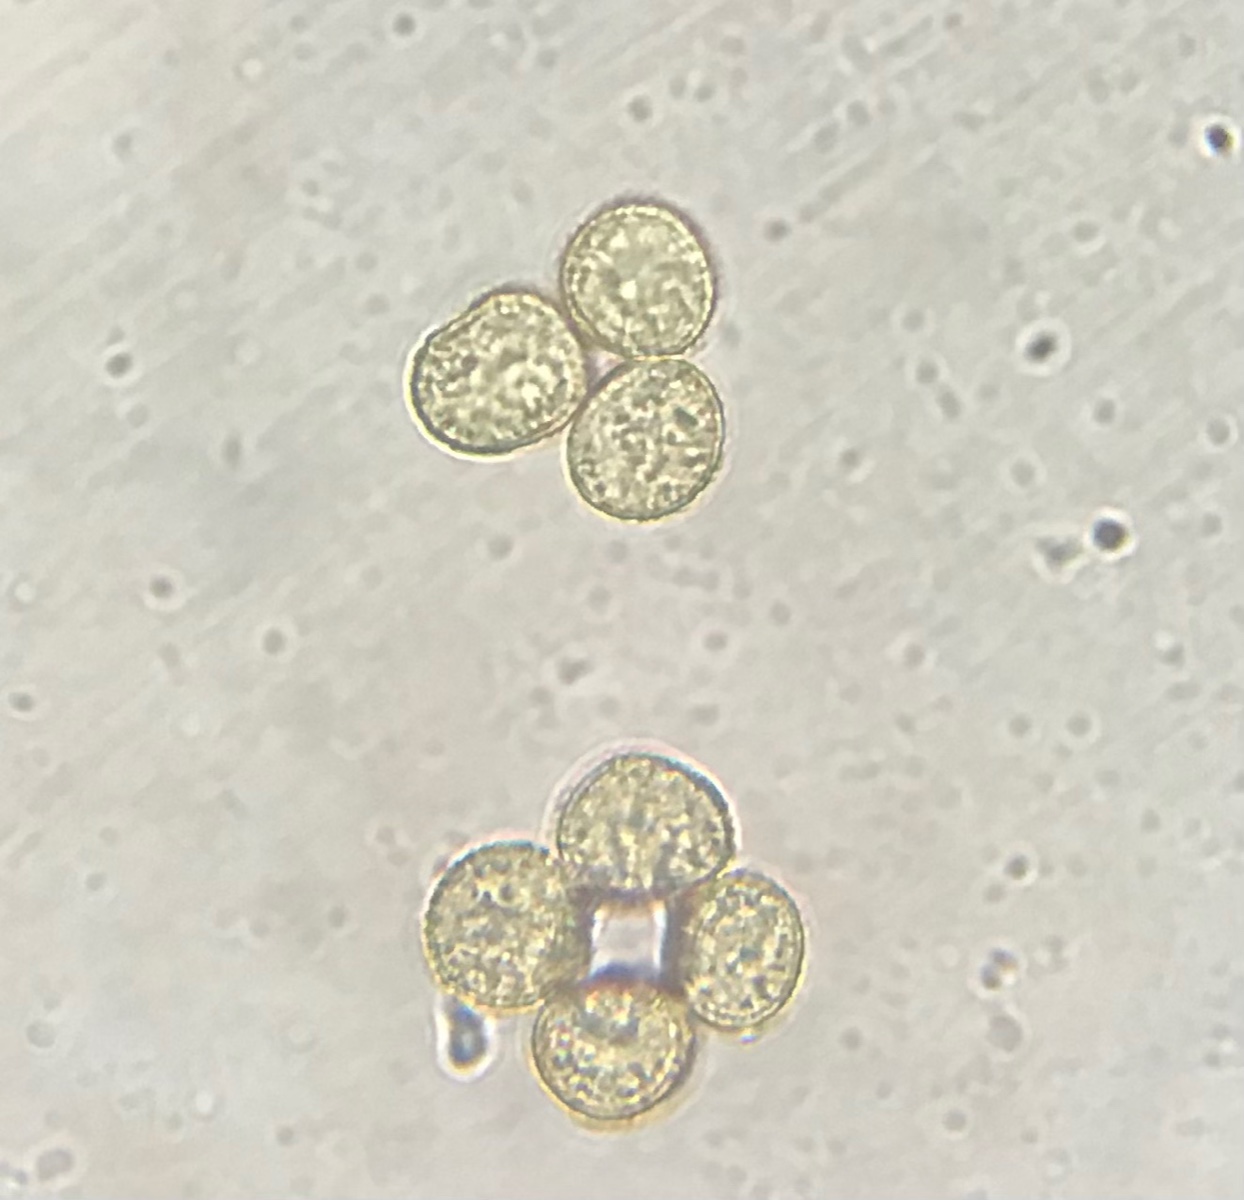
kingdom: Protozoa
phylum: Mycetozoa
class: Myxomycetes
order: Trichiales
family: Trichiaceae
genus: Trichia
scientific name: Trichia varia
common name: foranderlig hårbold
